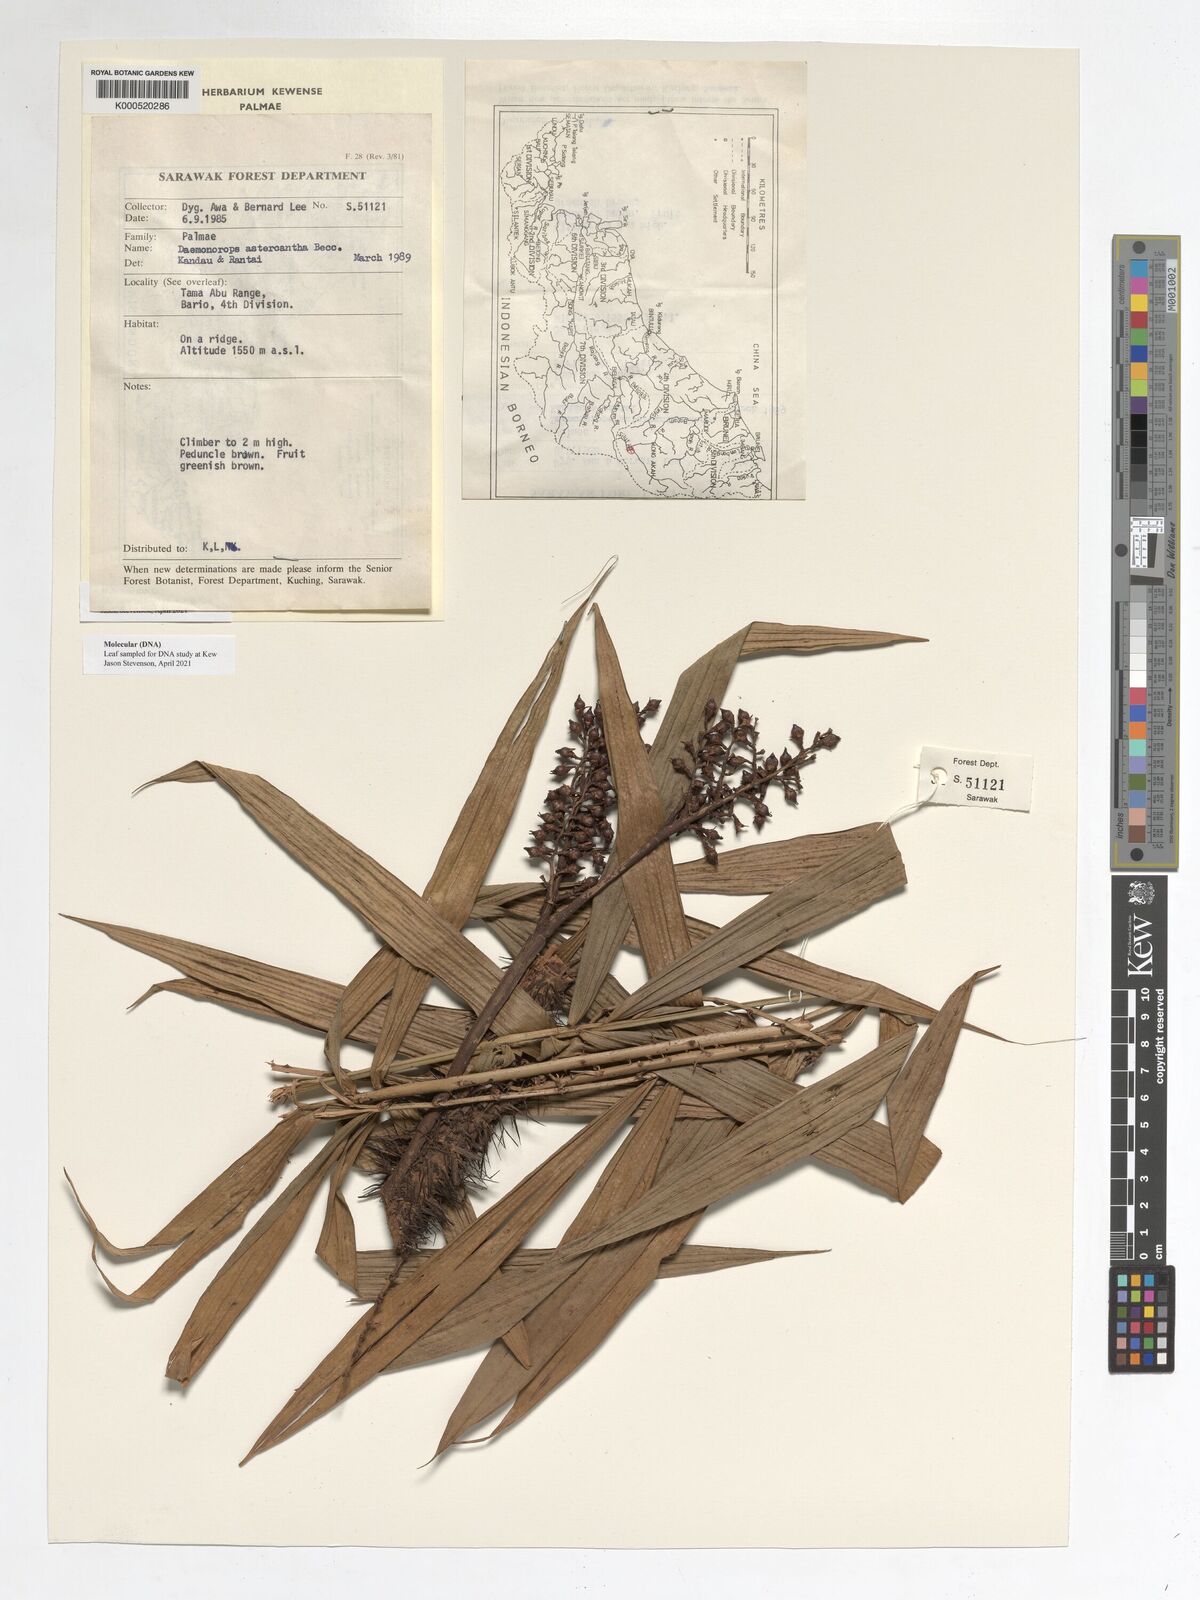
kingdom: Plantae
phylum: Tracheophyta
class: Liliopsida
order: Arecales
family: Arecaceae
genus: Calamus
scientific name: Calamus asteracanthus
